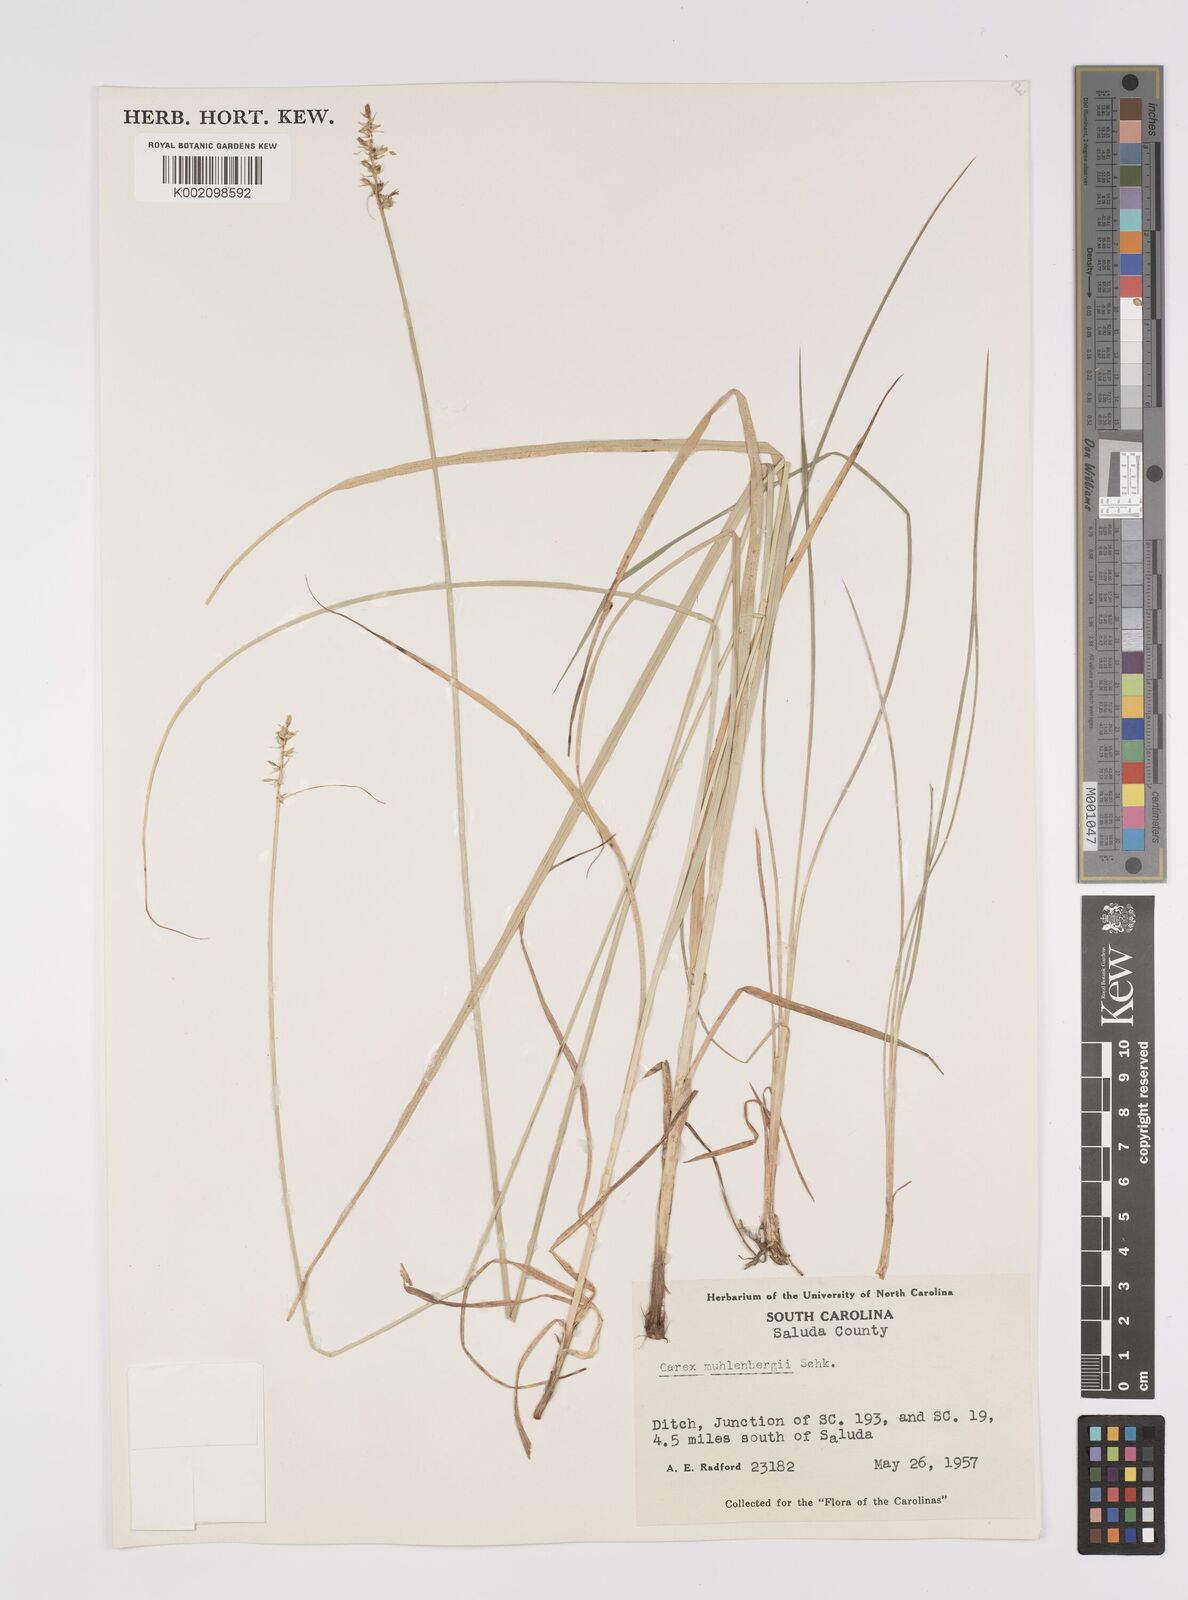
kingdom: Plantae
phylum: Tracheophyta
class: Liliopsida
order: Poales
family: Cyperaceae
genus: Carex
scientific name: Carex vulpinoidea
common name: American fox-sedge
